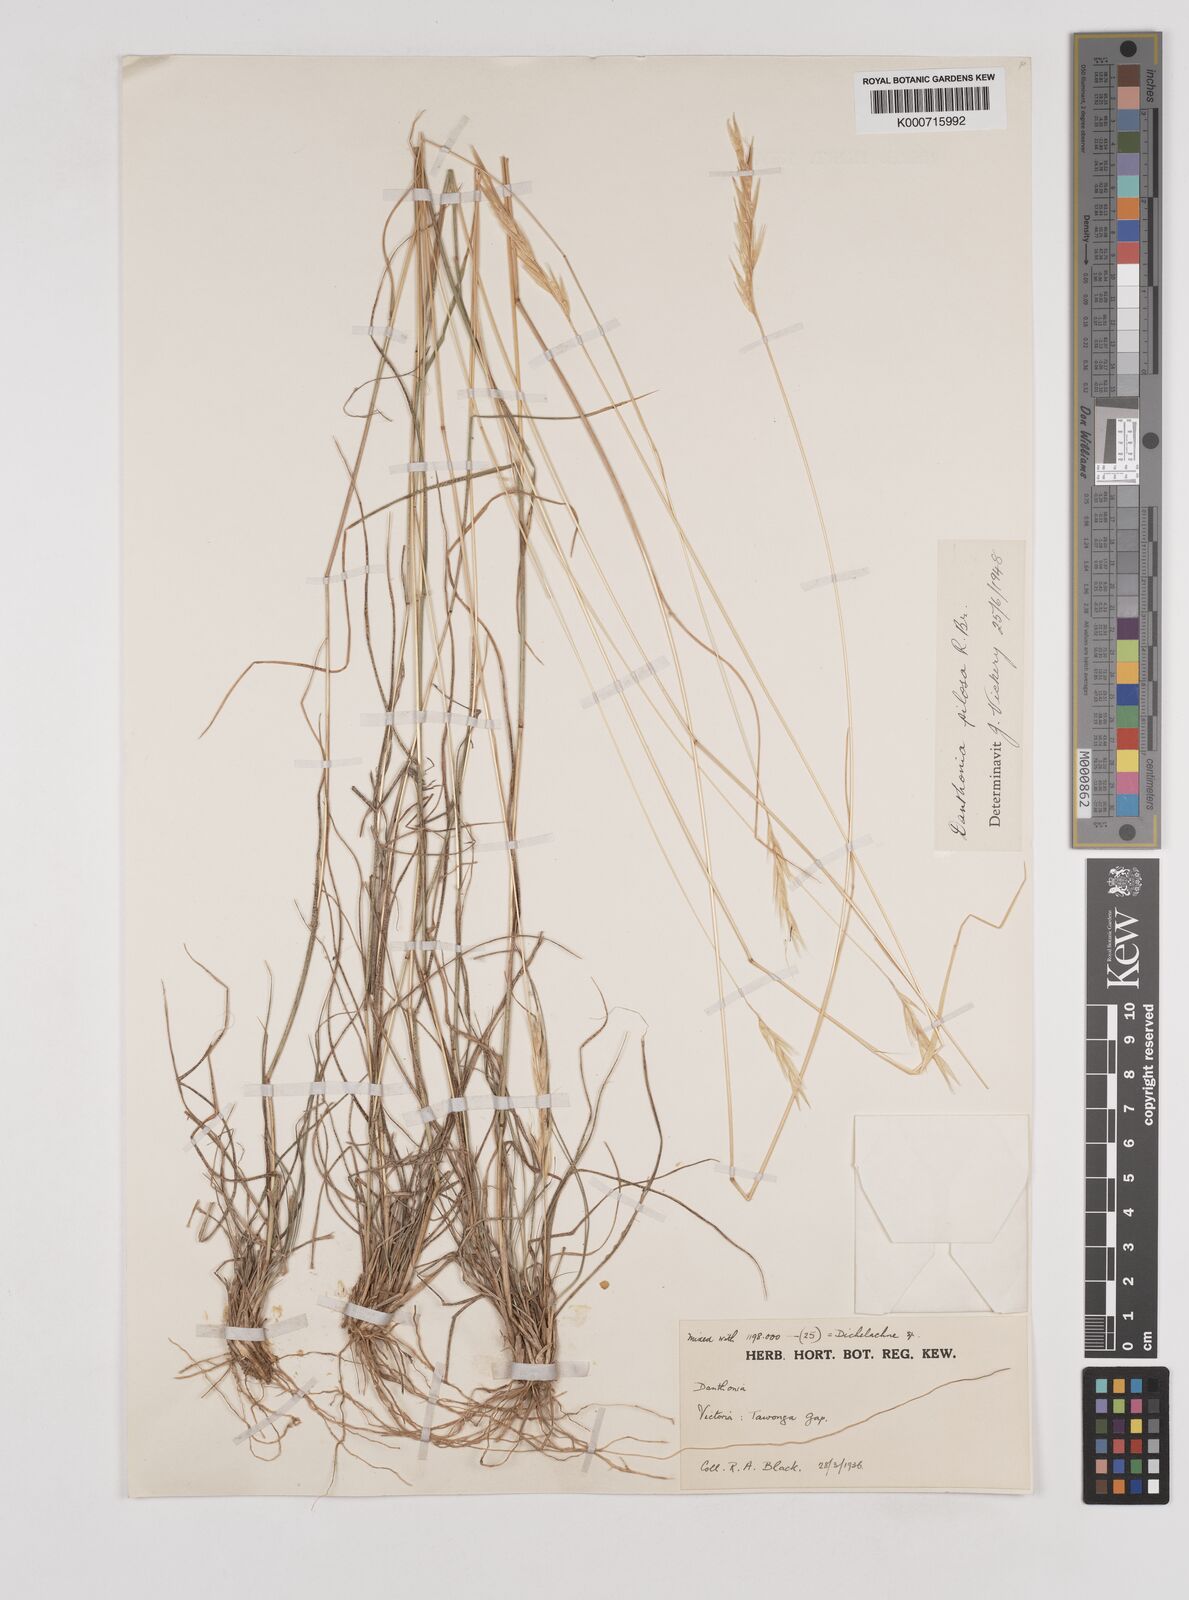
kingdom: Plantae
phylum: Tracheophyta
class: Liliopsida
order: Poales
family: Poaceae
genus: Rytidosperma
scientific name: Rytidosperma pilosum
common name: Hairy wallaby grass
